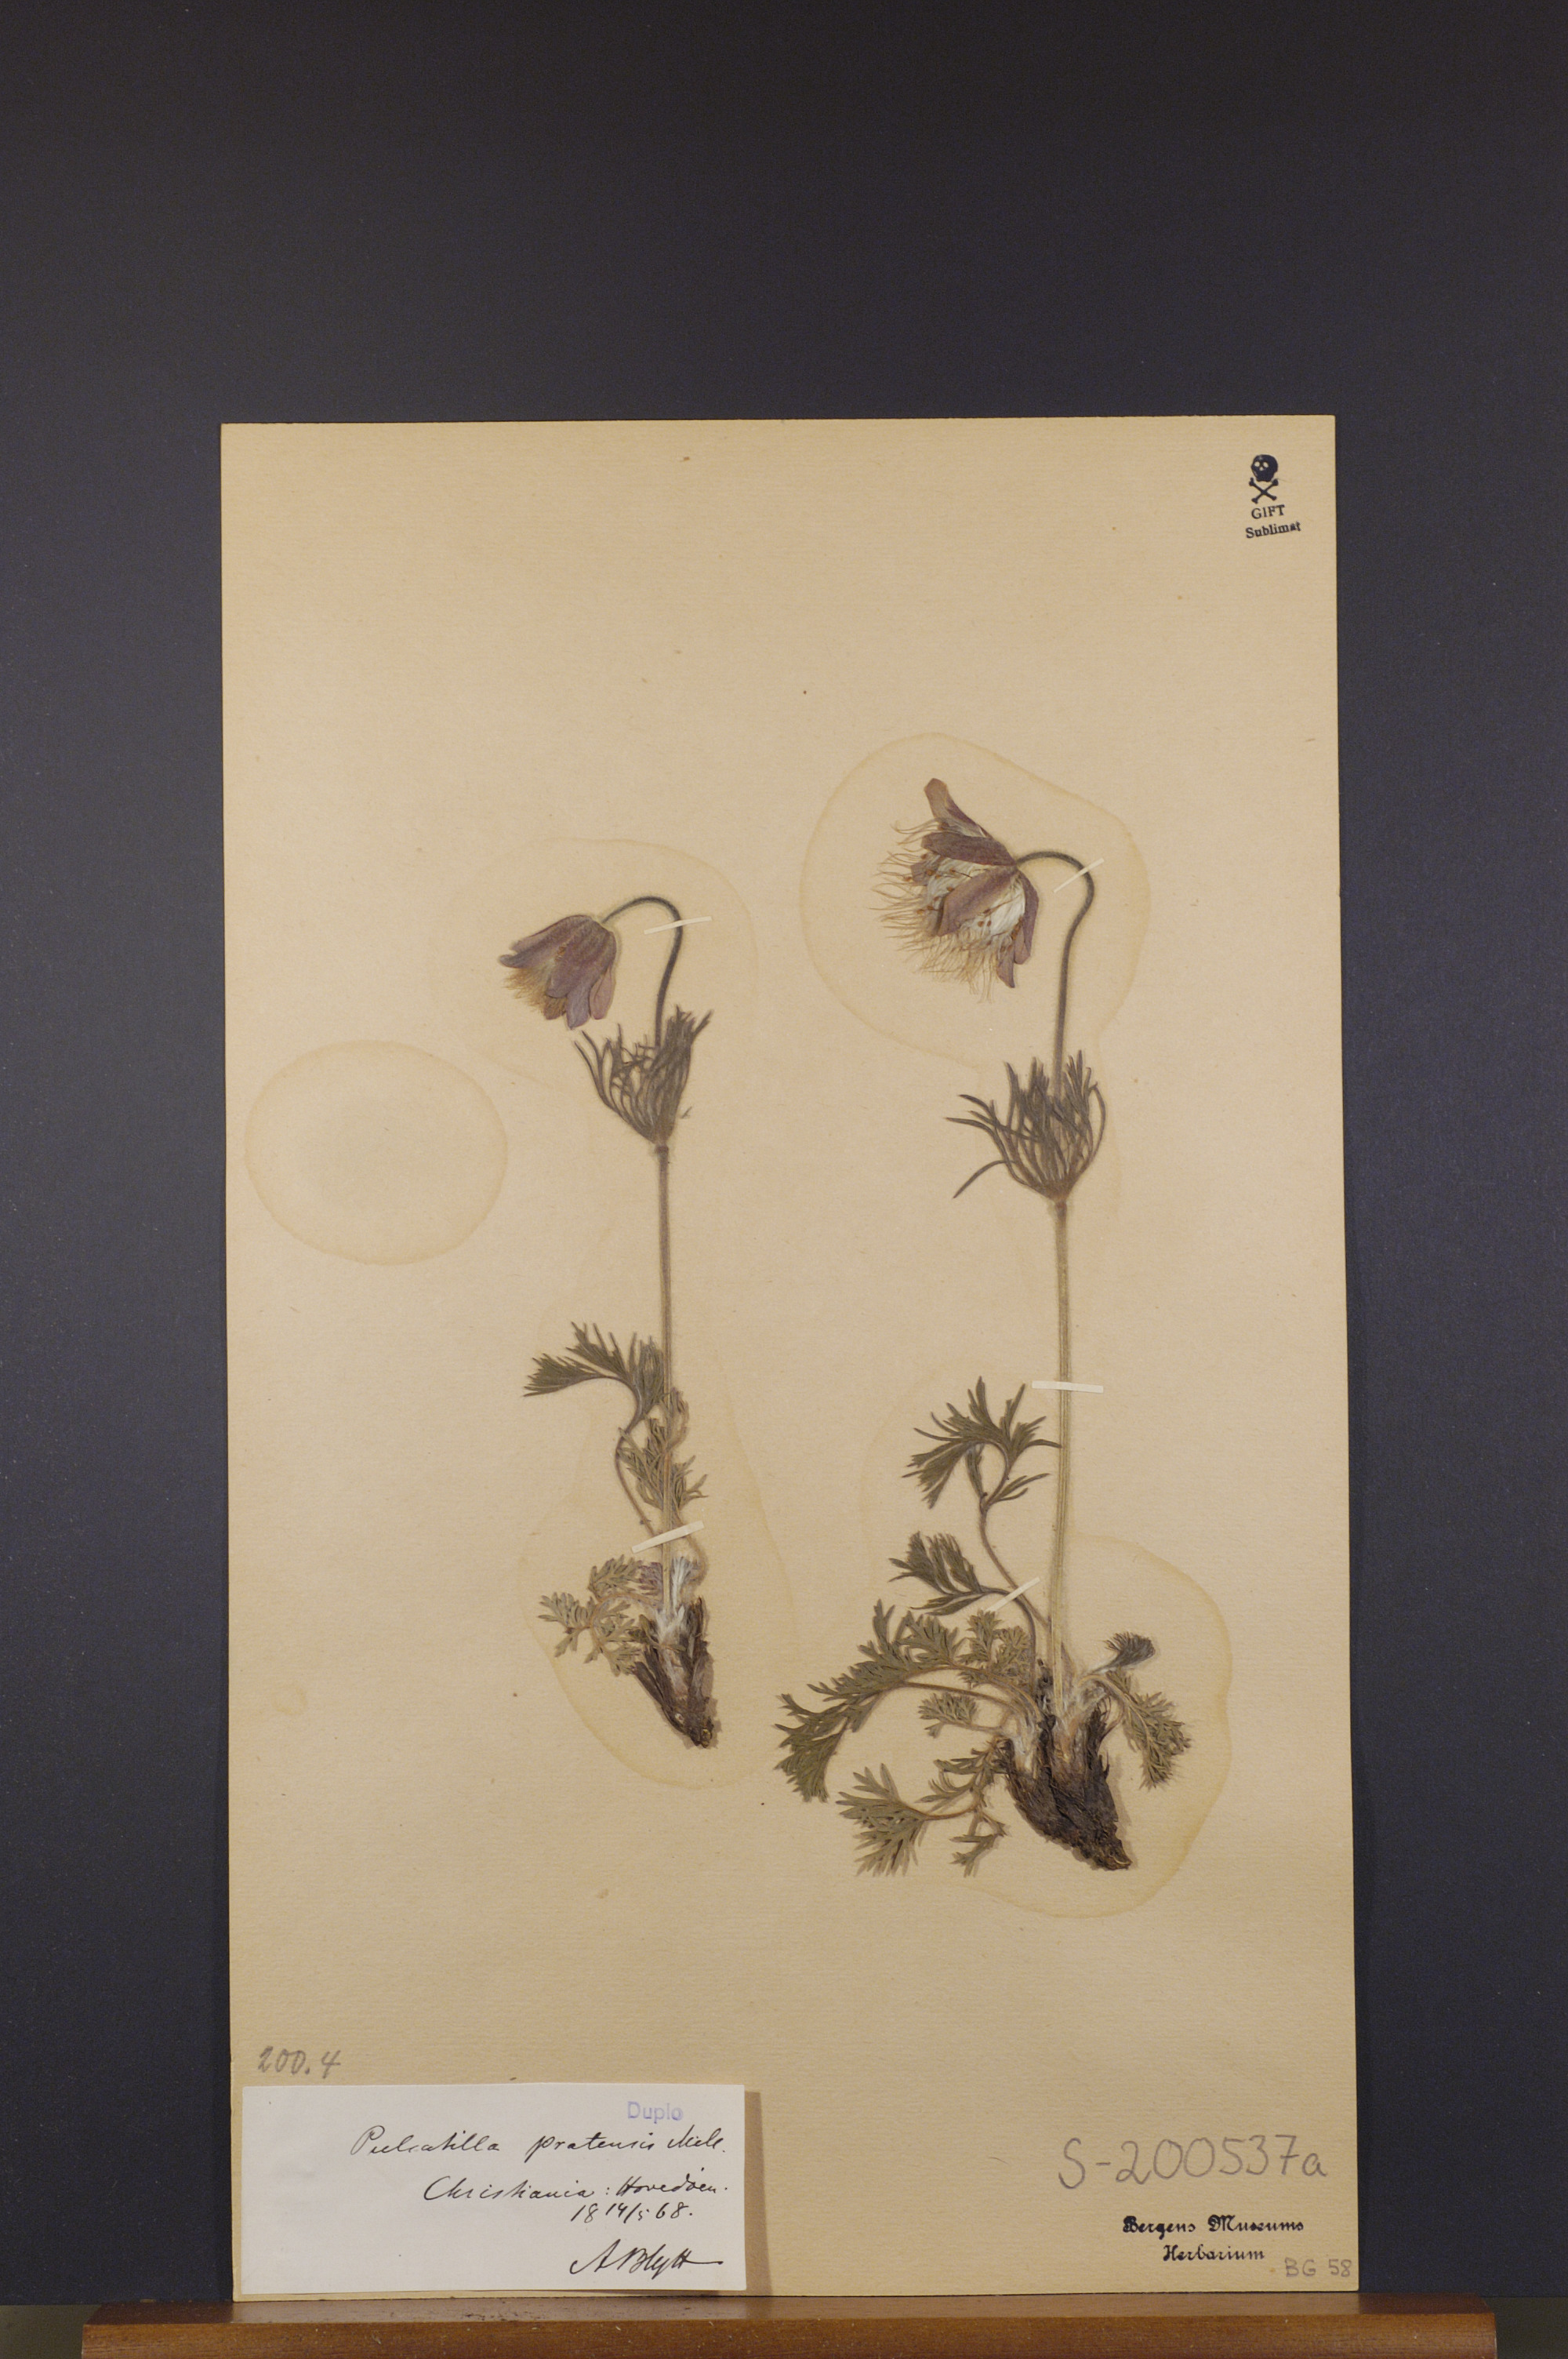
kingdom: Plantae
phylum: Tracheophyta
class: Magnoliopsida
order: Ranunculales
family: Ranunculaceae
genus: Pulsatilla
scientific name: Pulsatilla pratensis
